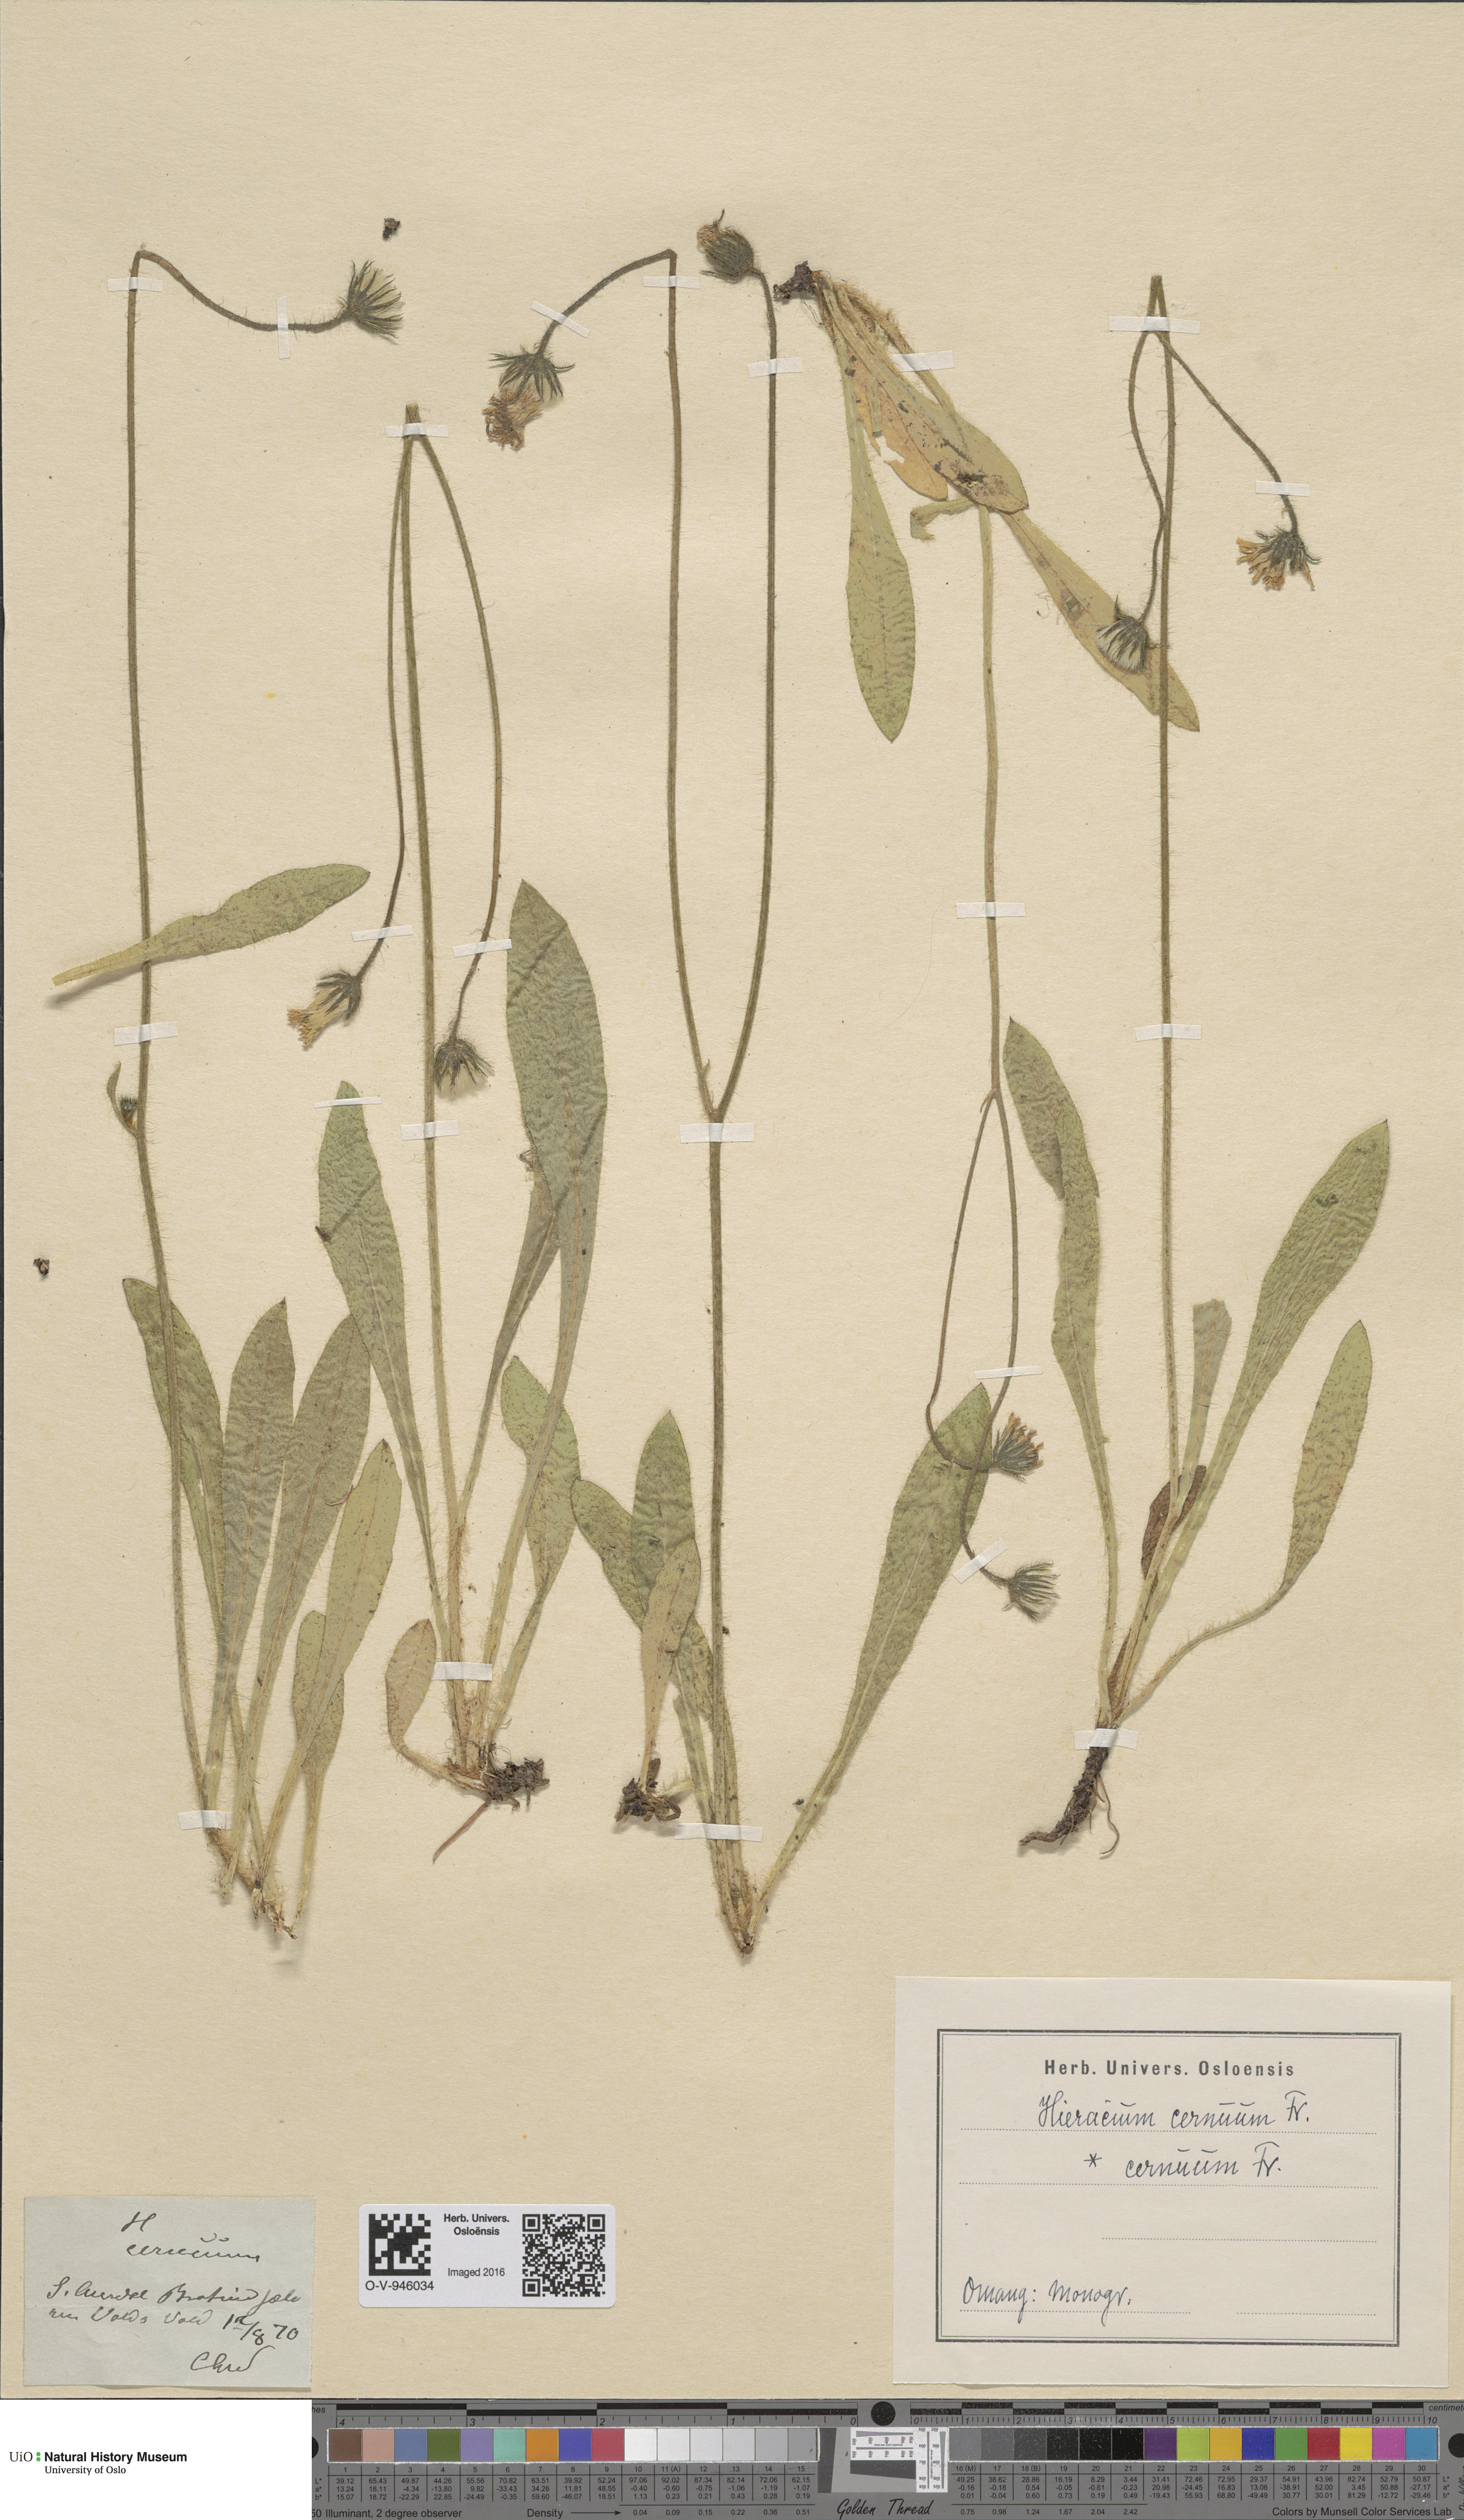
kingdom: Plantae
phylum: Tracheophyta
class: Magnoliopsida
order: Asterales
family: Asteraceae
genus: Pilosella
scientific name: Pilosella peteriana
